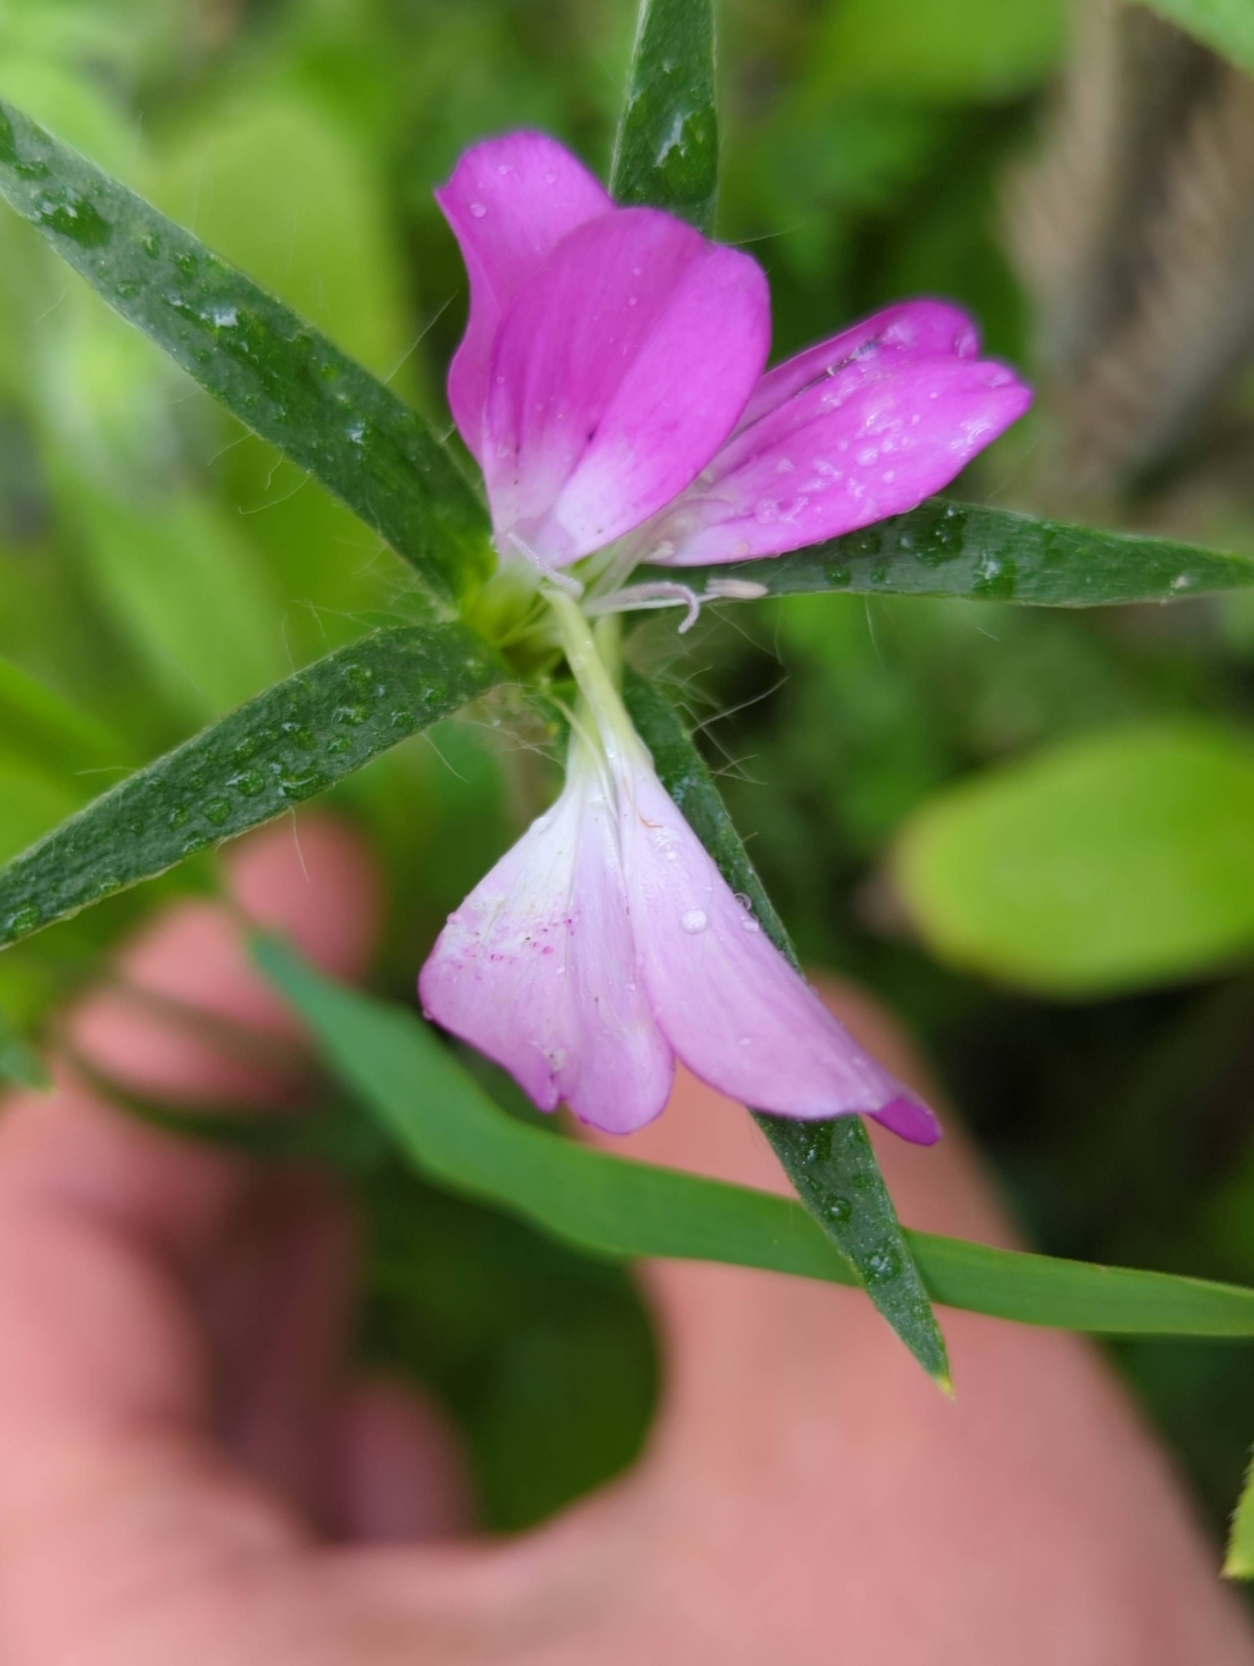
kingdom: Plantae
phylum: Tracheophyta
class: Magnoliopsida
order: Caryophyllales
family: Caryophyllaceae
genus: Agrostemma
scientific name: Agrostemma githago
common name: Klinte
